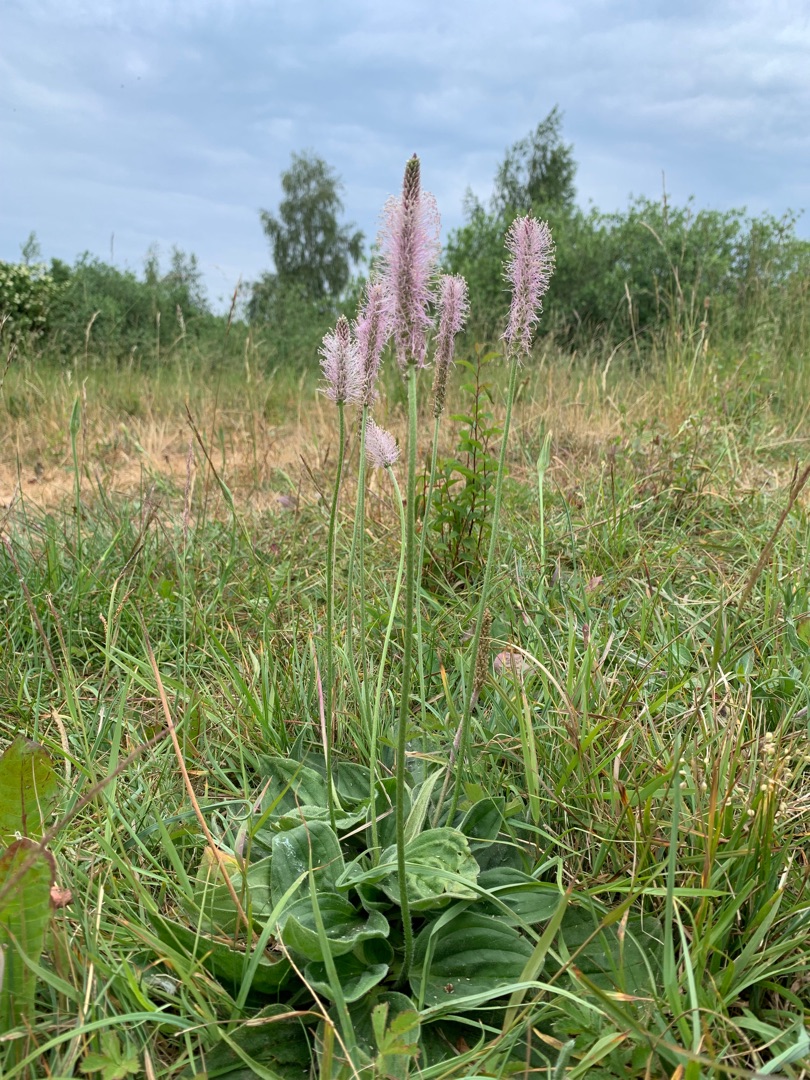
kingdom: Plantae
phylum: Tracheophyta
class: Magnoliopsida
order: Lamiales
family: Plantaginaceae
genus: Plantago
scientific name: Plantago media
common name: Dunet vejbred
